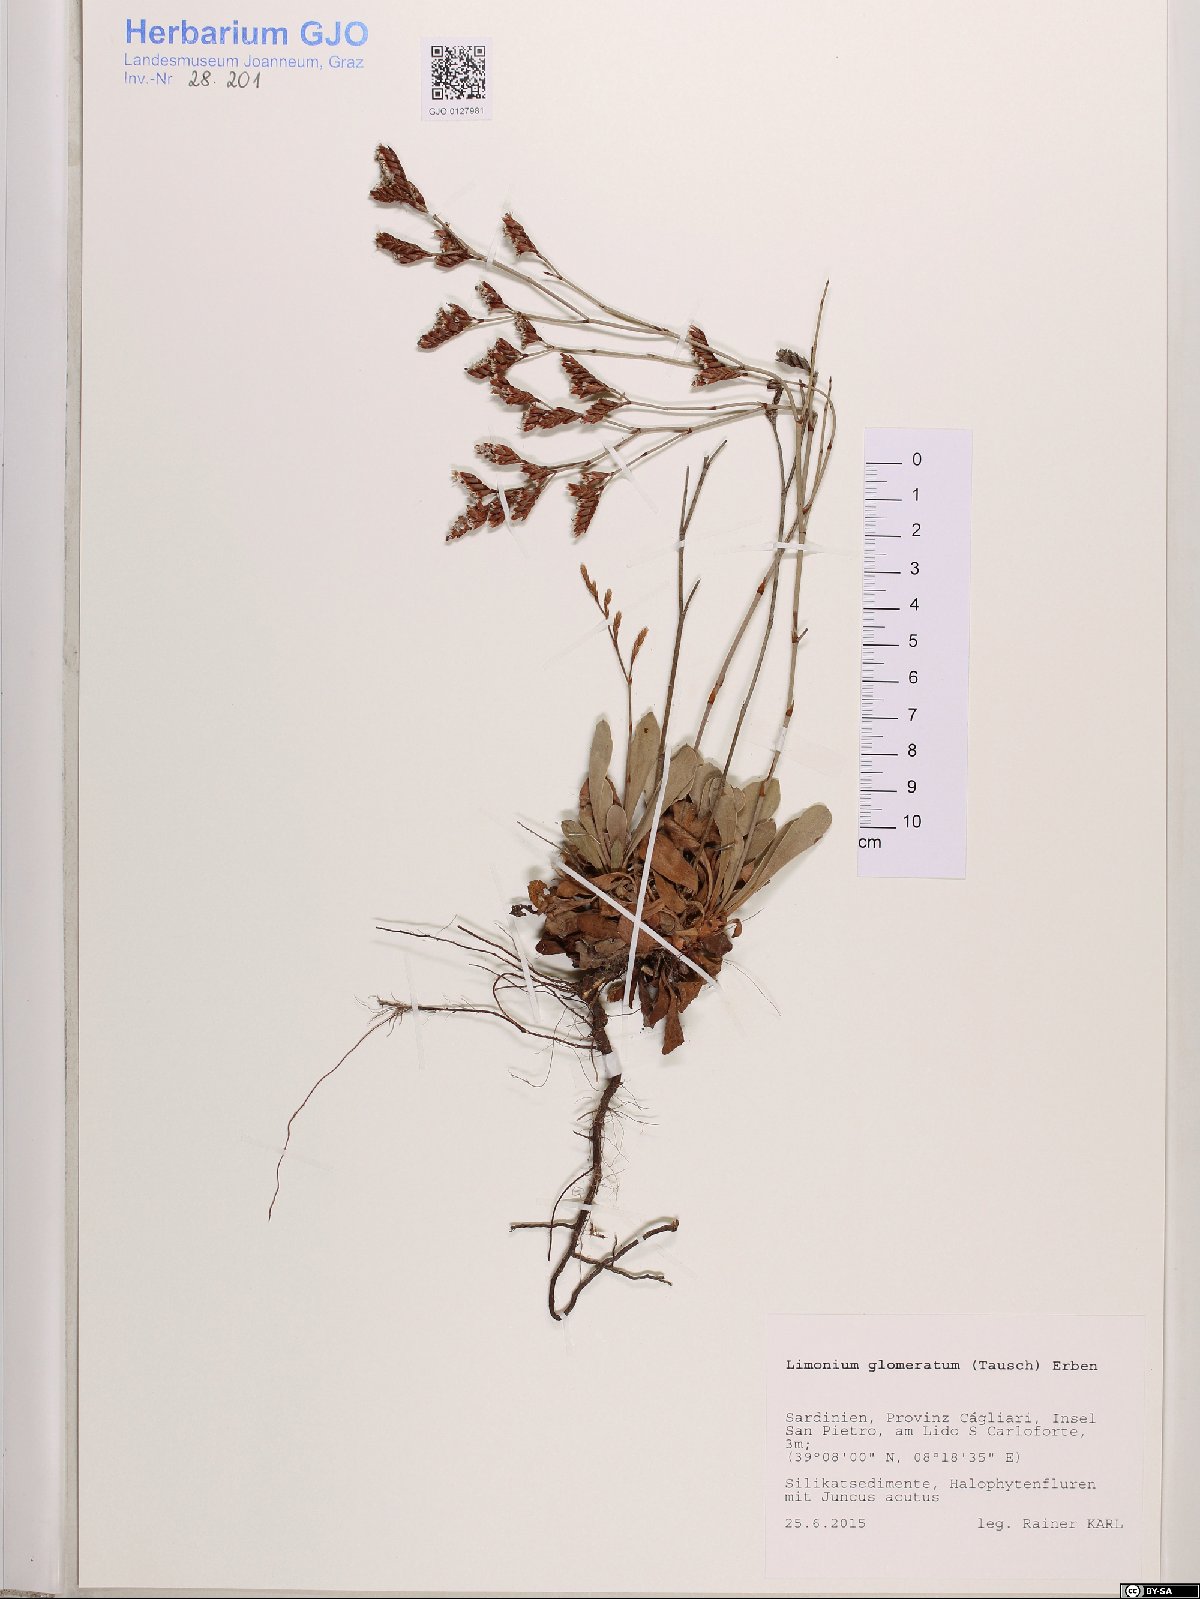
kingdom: Plantae
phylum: Tracheophyta
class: Magnoliopsida
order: Caryophyllales
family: Plumbaginaceae
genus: Limonium
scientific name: Limonium glomeratum
